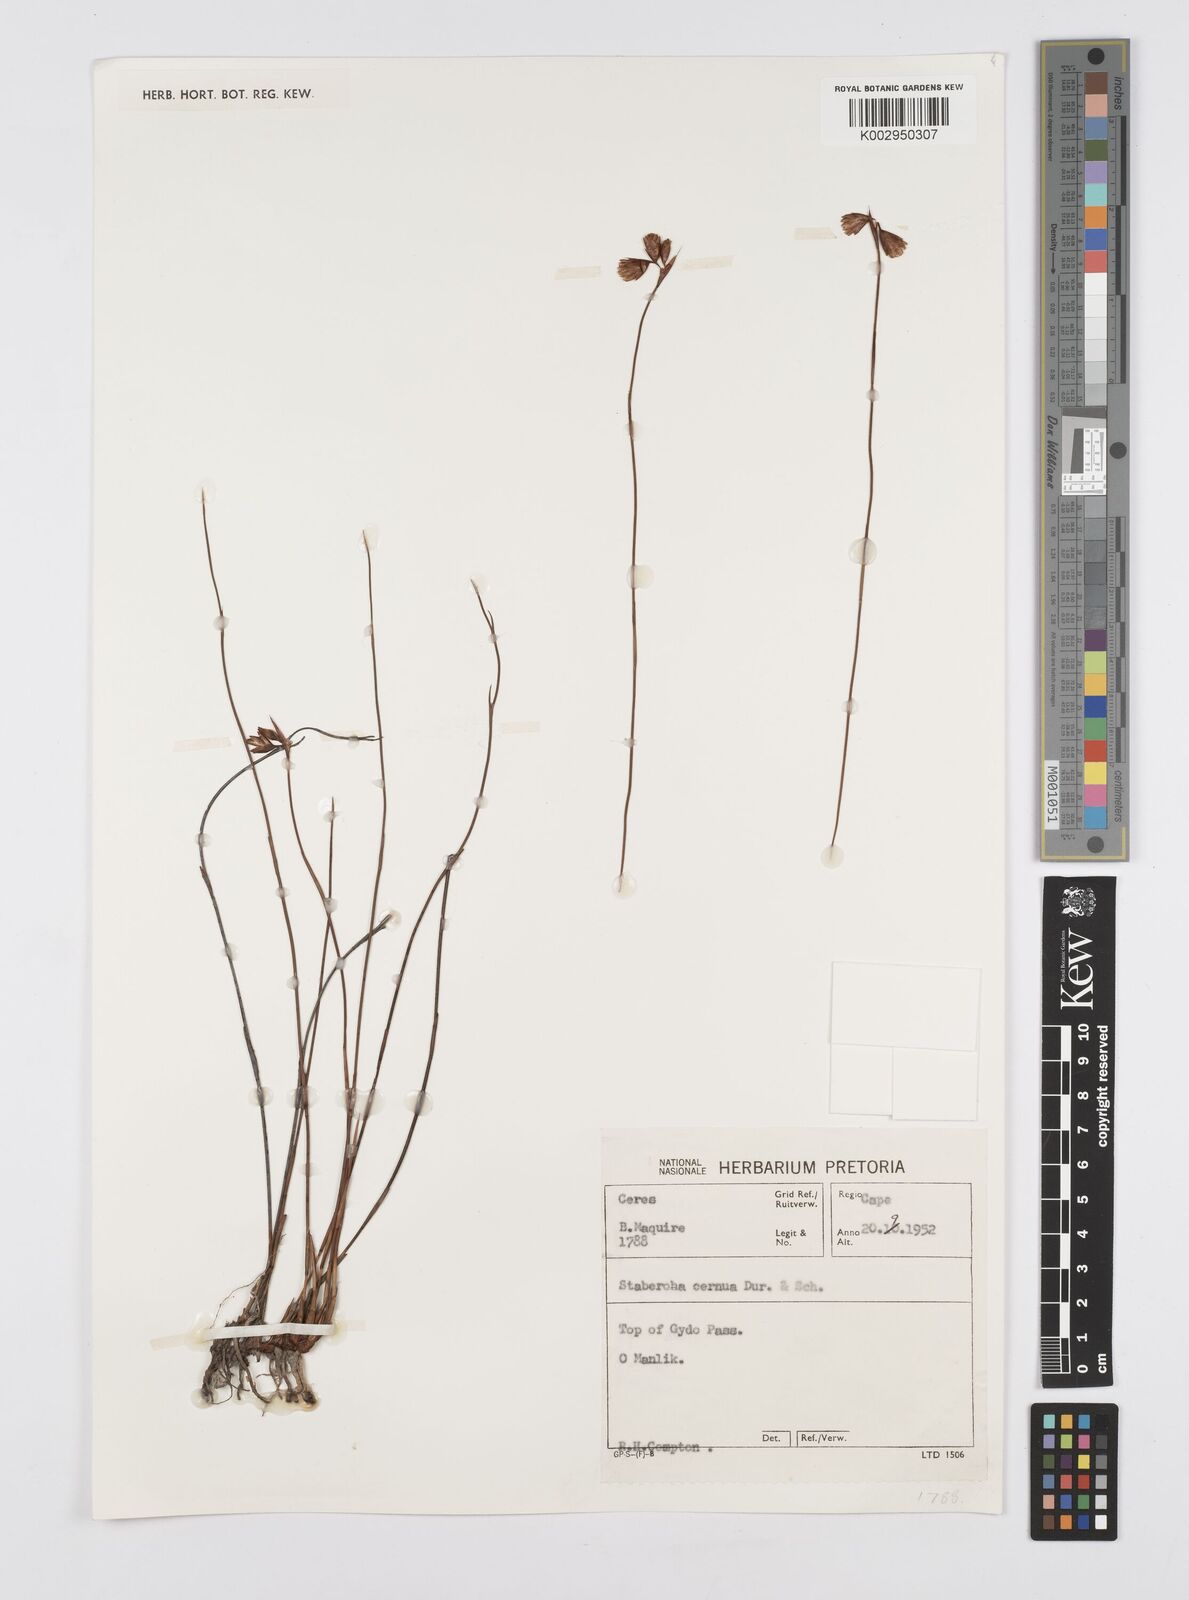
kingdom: Plantae
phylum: Tracheophyta
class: Liliopsida
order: Poales
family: Restionaceae
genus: Staberoha
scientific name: Staberoha cernua
